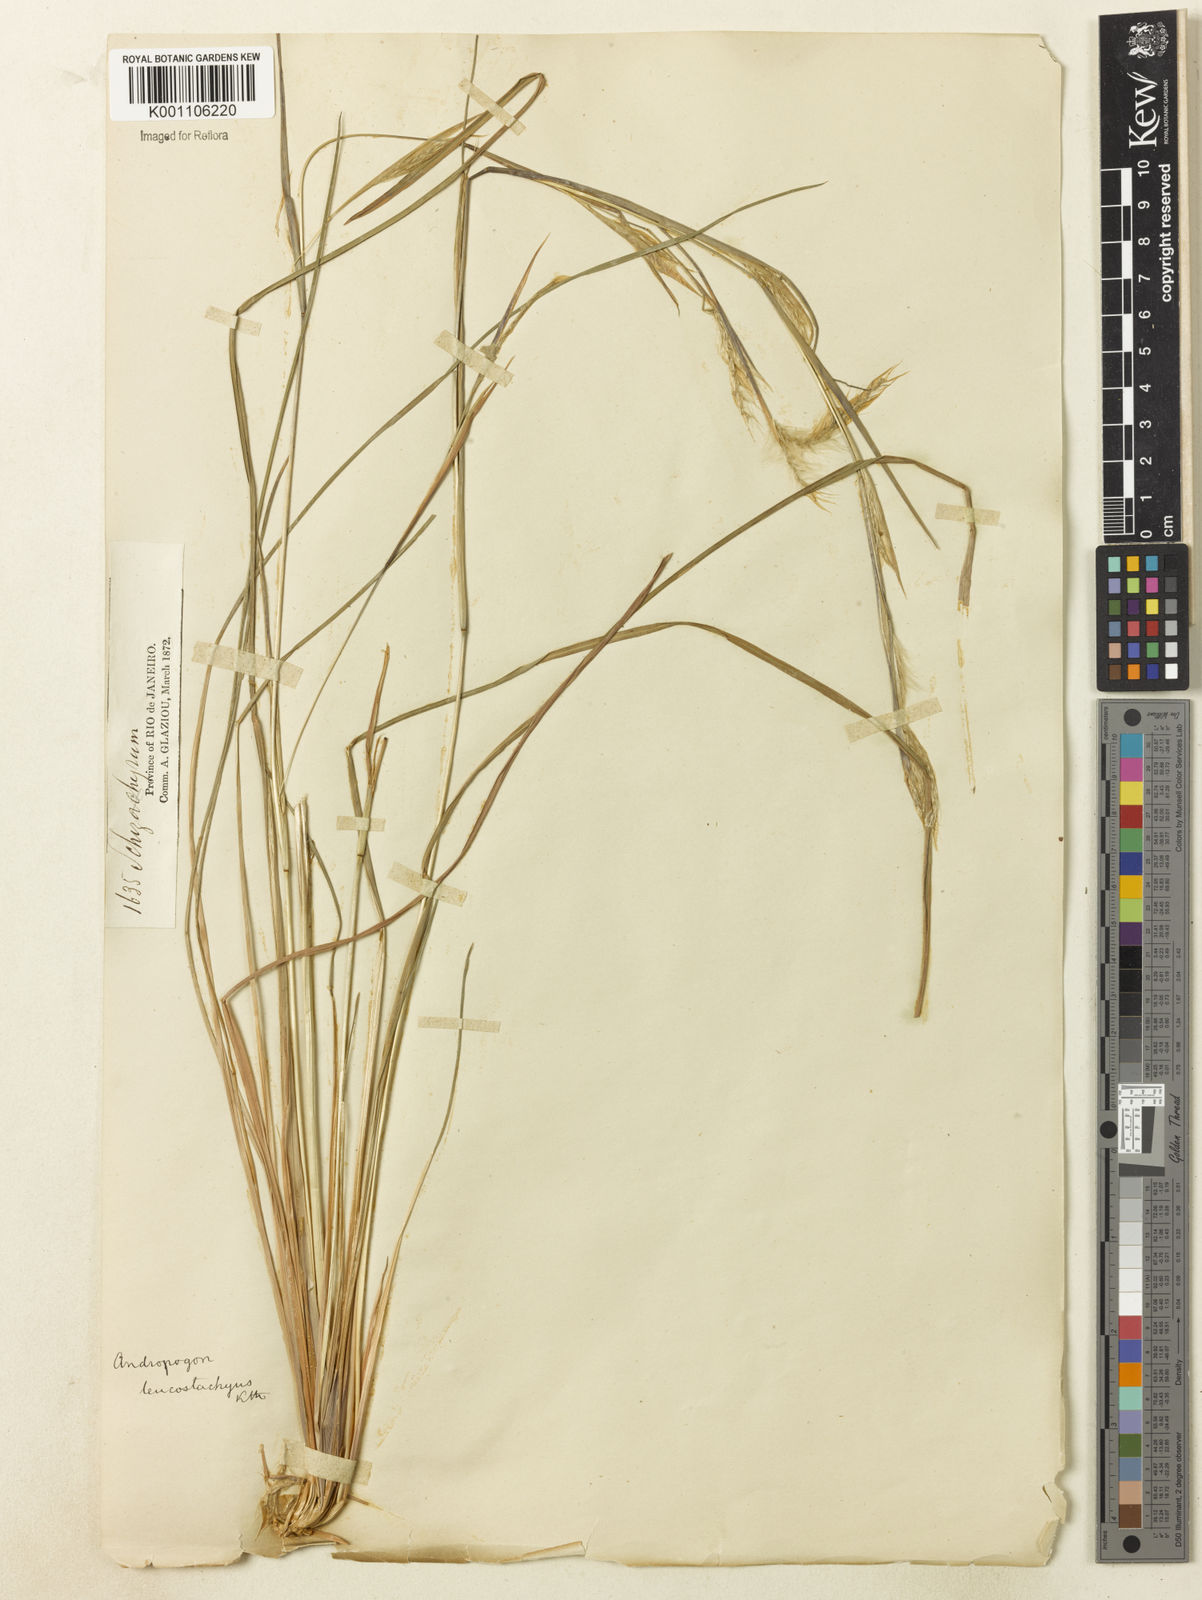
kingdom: Plantae
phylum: Tracheophyta
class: Liliopsida
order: Poales
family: Poaceae
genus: Andropogon
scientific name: Andropogon leucostachyus
